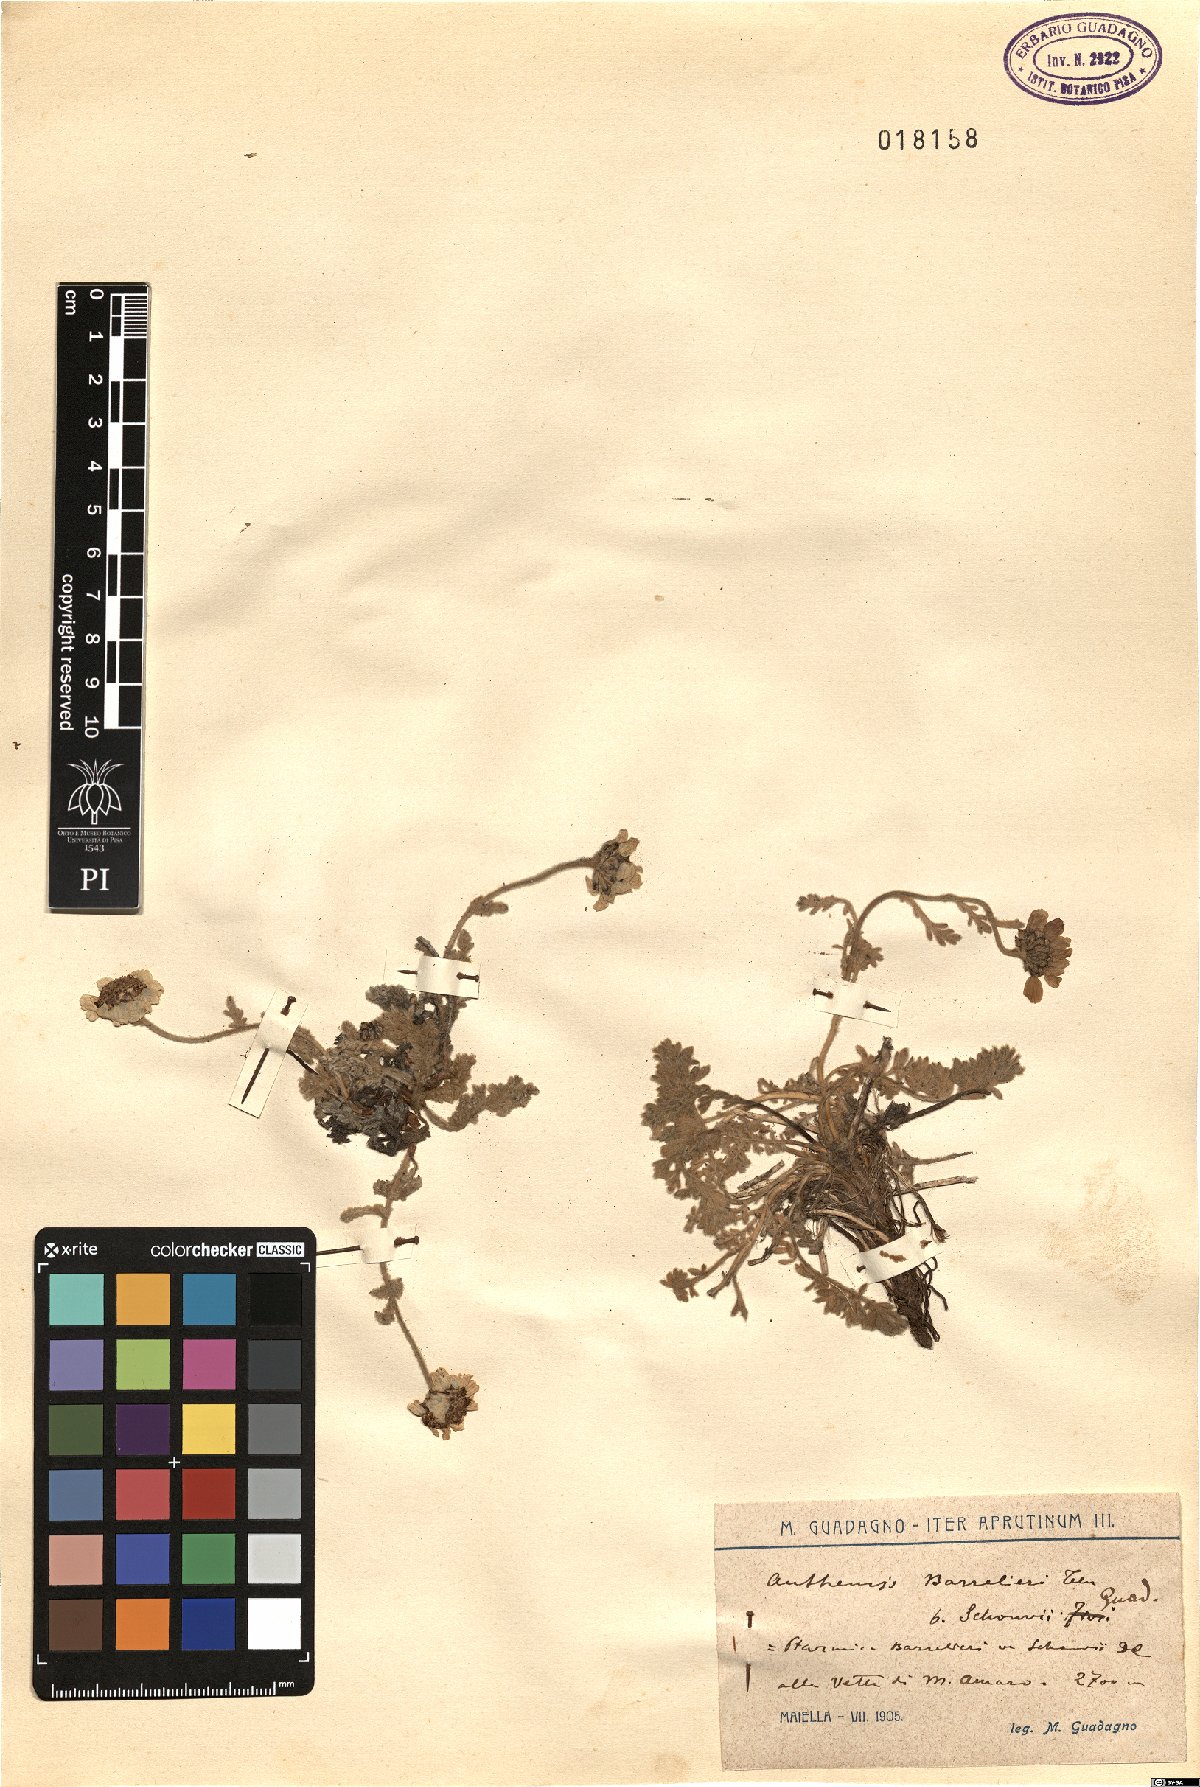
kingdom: Plantae
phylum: Tracheophyta
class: Magnoliopsida
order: Asterales
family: Asteraceae
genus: Achillea
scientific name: Achillea barrelieri
